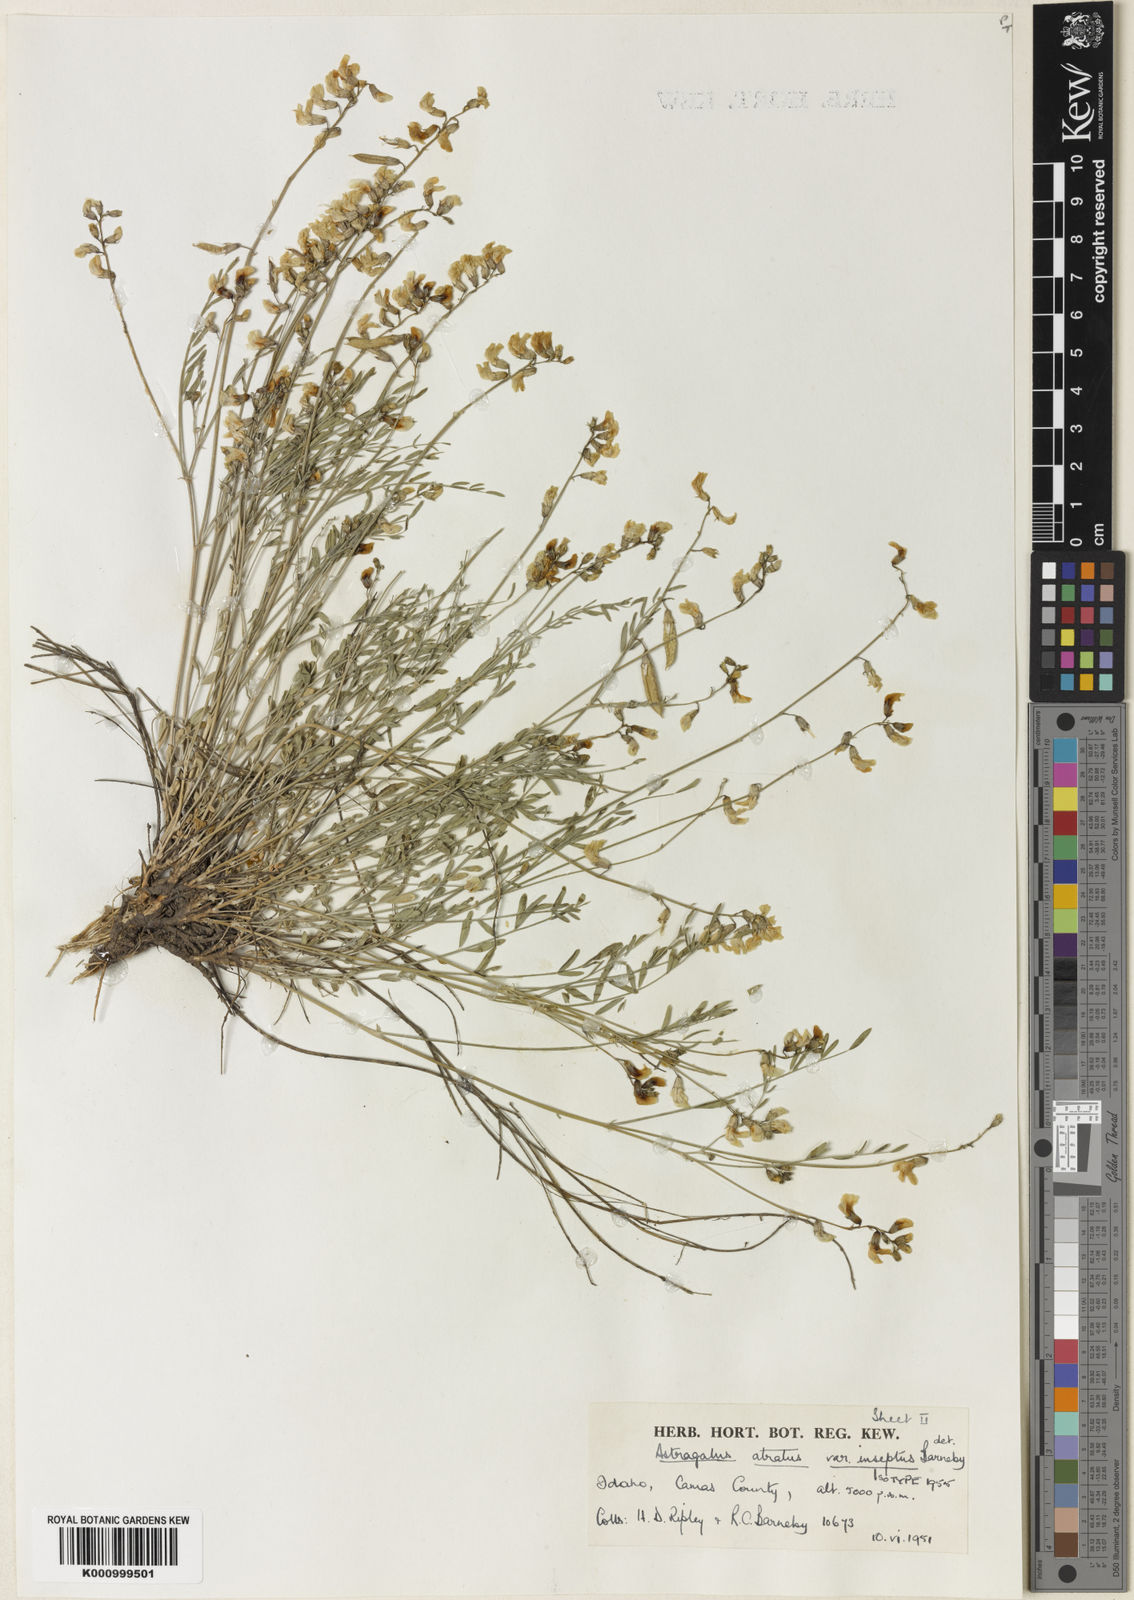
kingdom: Plantae
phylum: Tracheophyta
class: Magnoliopsida
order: Fabales
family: Fabaceae
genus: Astragalus
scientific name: Astragalus atratus
